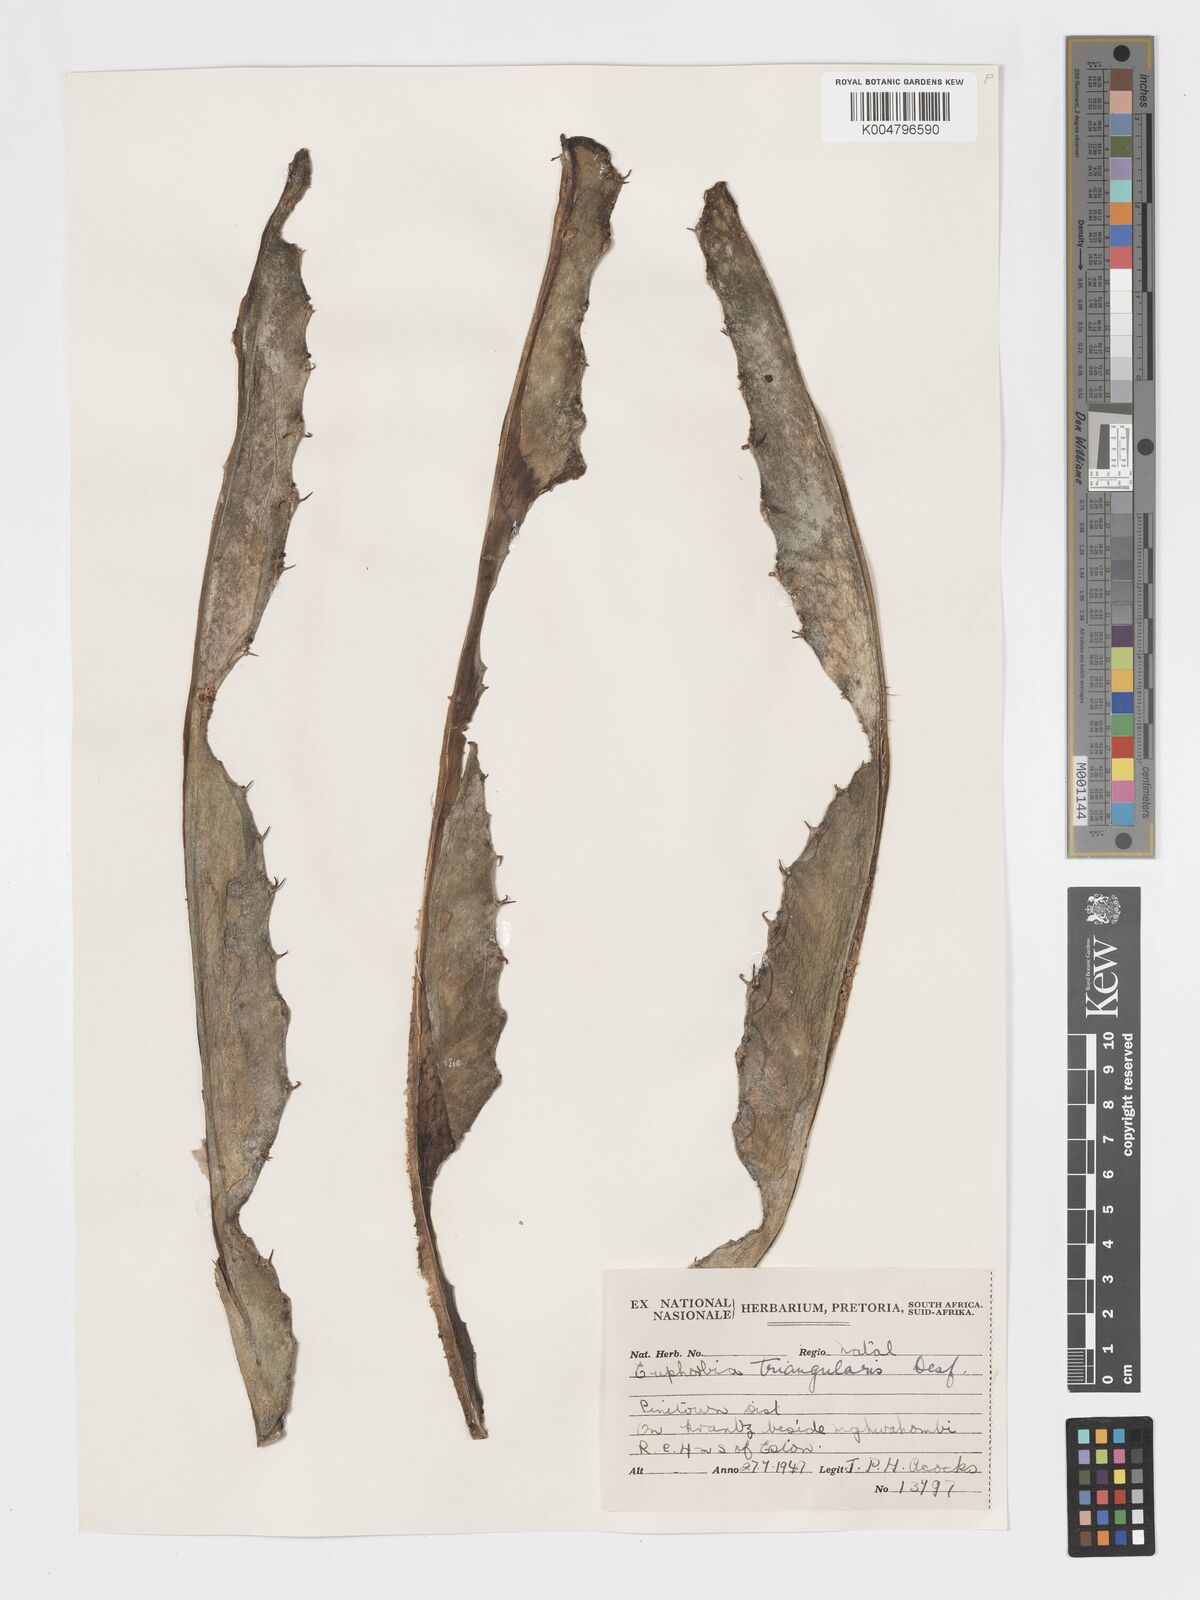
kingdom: Plantae
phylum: Tracheophyta
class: Magnoliopsida
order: Malpighiales
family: Euphorbiaceae
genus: Euphorbia
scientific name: Euphorbia triangularis
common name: Chandelier tree
